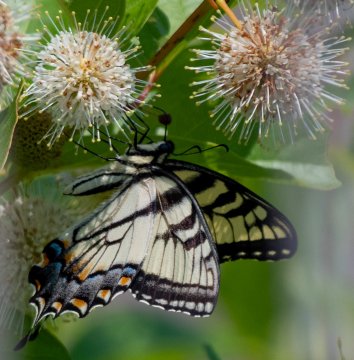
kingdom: Animalia
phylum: Arthropoda
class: Insecta
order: Lepidoptera
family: Papilionidae
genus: Pterourus
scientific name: Pterourus canadensis
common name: Canadian Tiger Swallowtail
